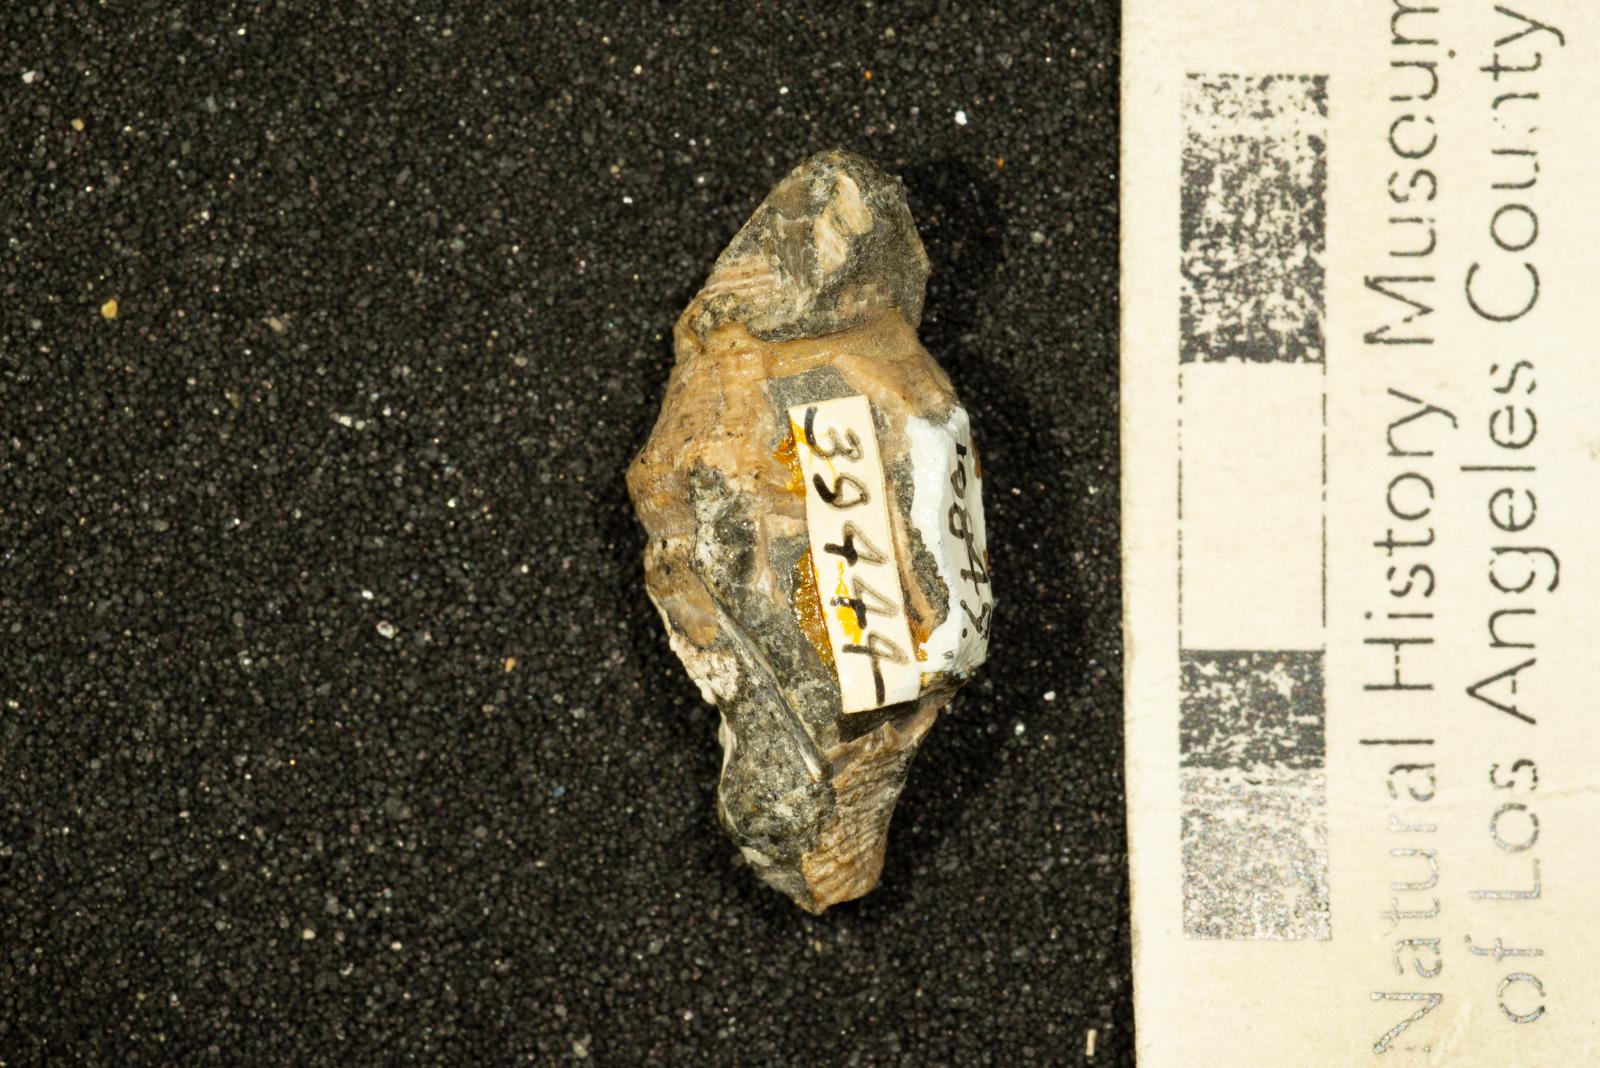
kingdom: Animalia
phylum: Mollusca
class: Gastropoda
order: Neogastropoda
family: Perissityidae
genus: Forsia
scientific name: Forsia lorda
